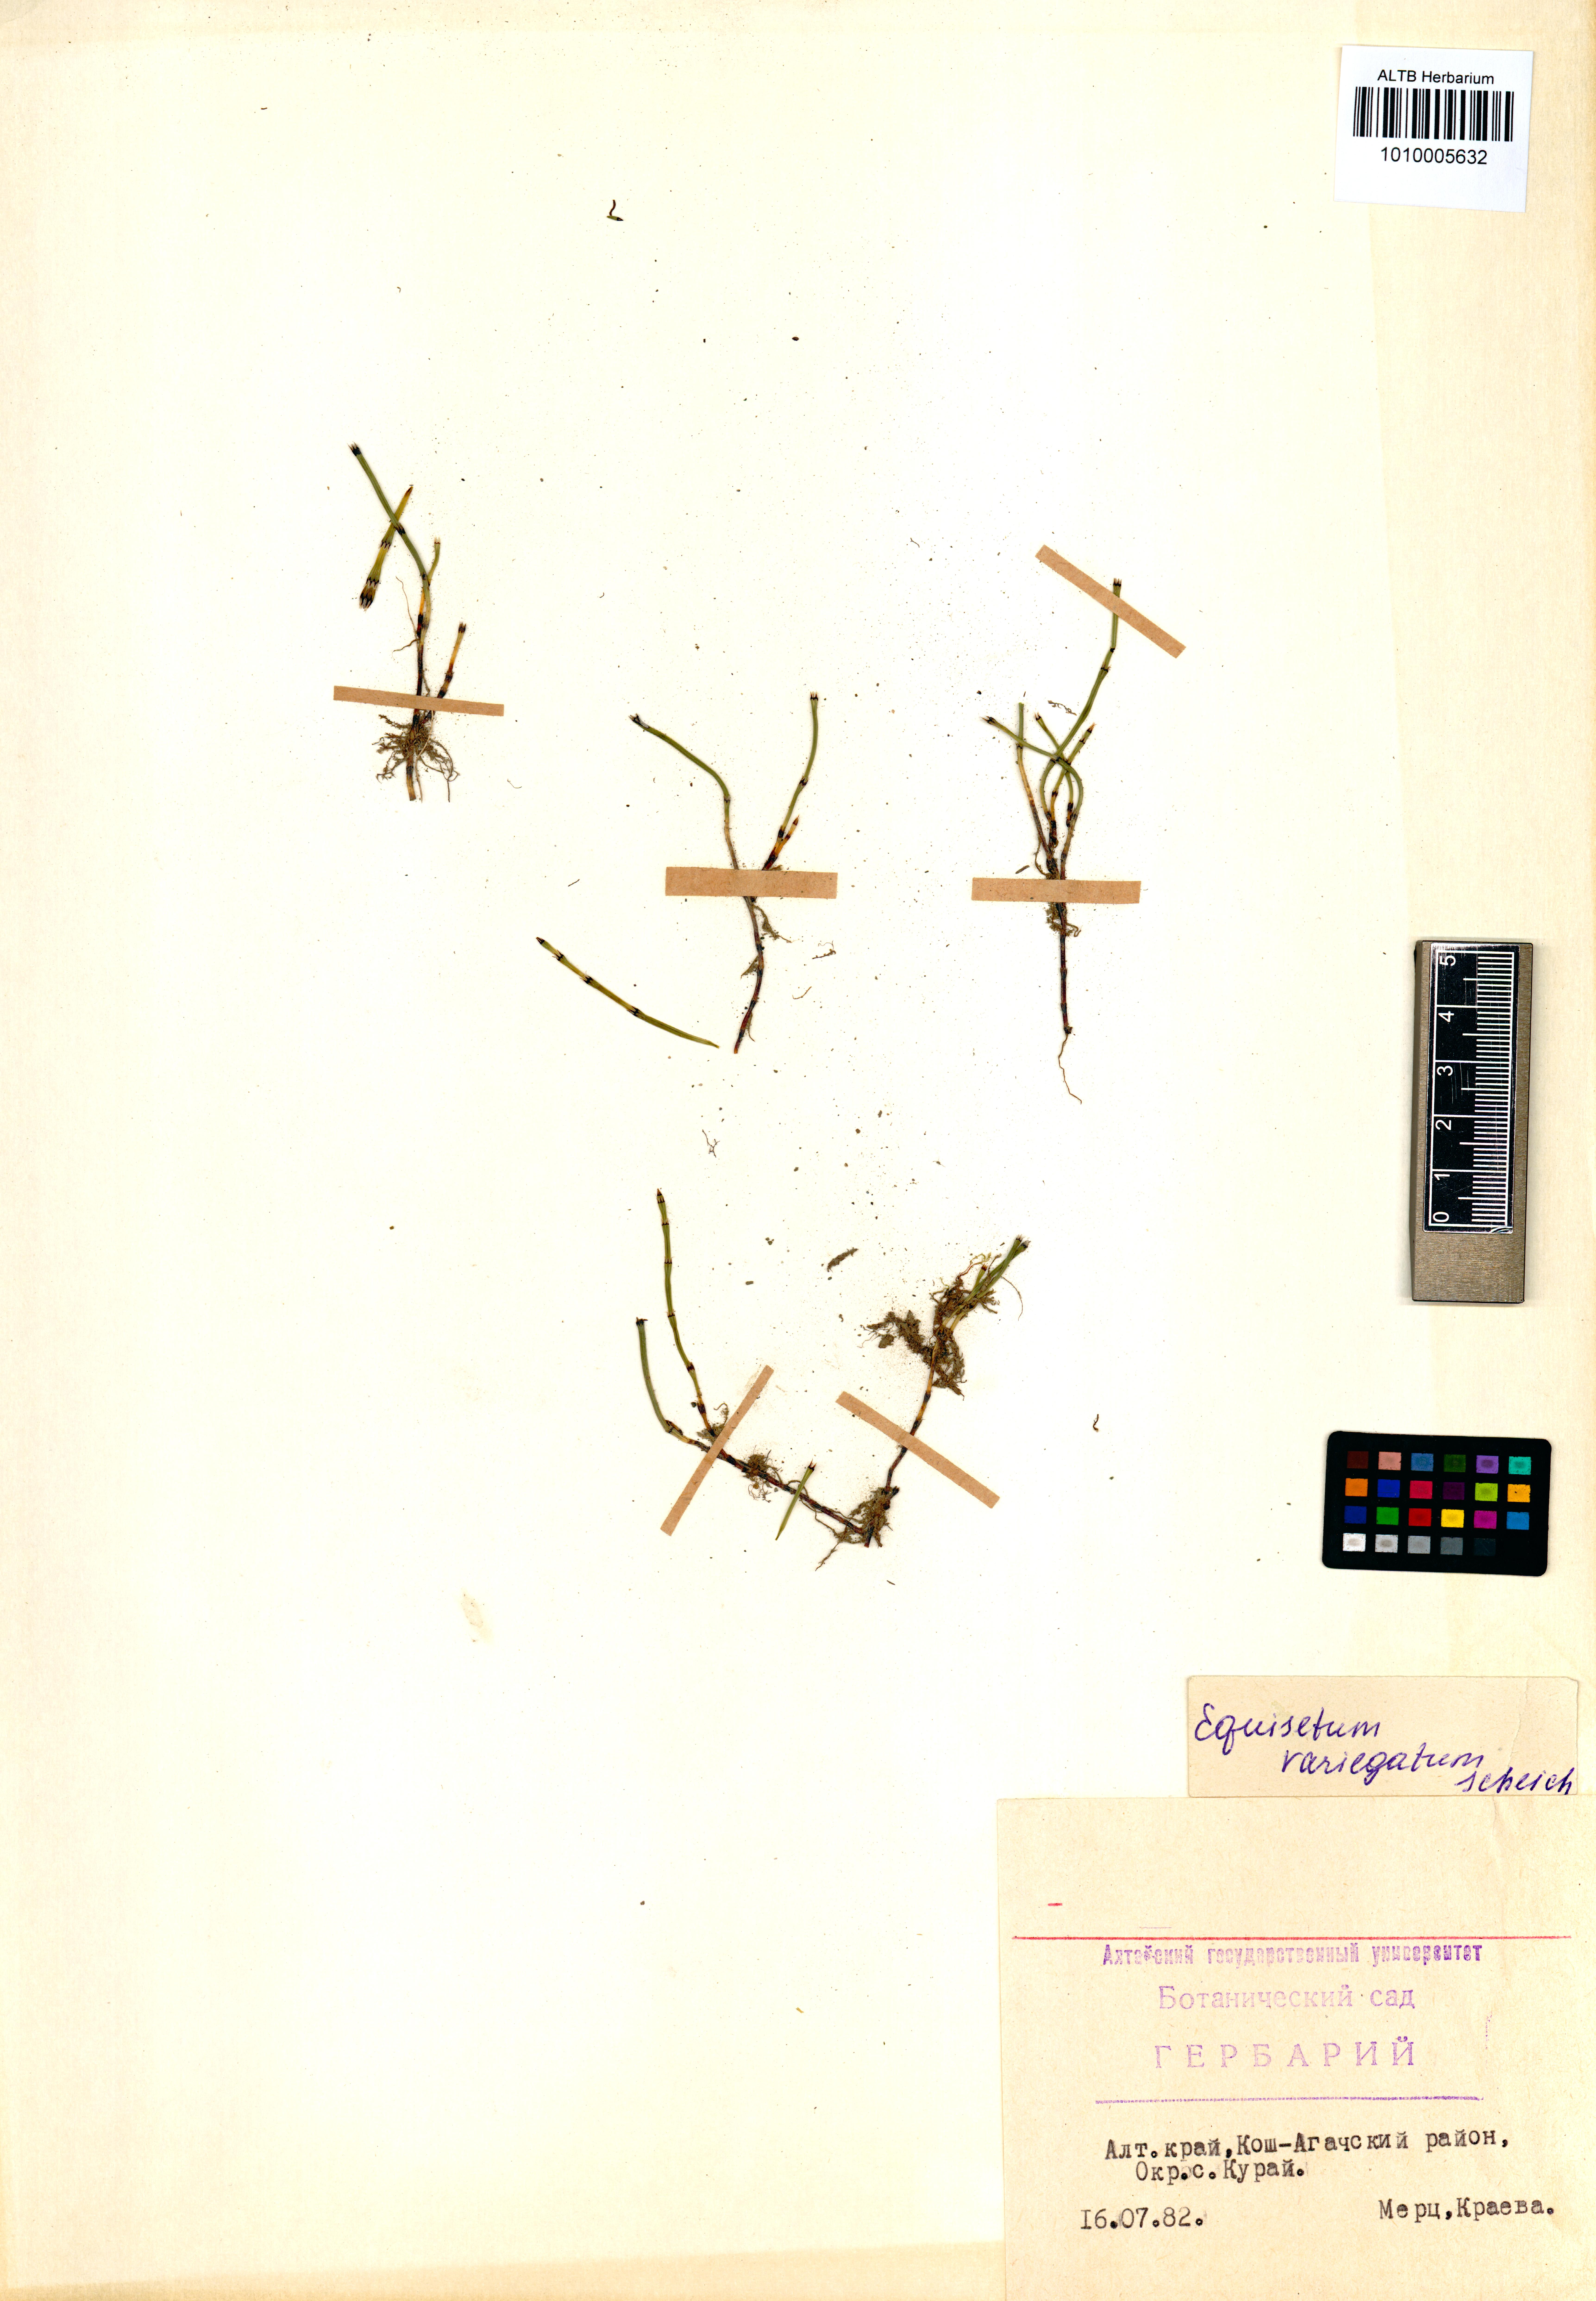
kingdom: Plantae
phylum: Tracheophyta
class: Polypodiopsida
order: Equisetales
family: Equisetaceae
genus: Equisetum
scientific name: Equisetum variegatum
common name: Variegated horsetail
